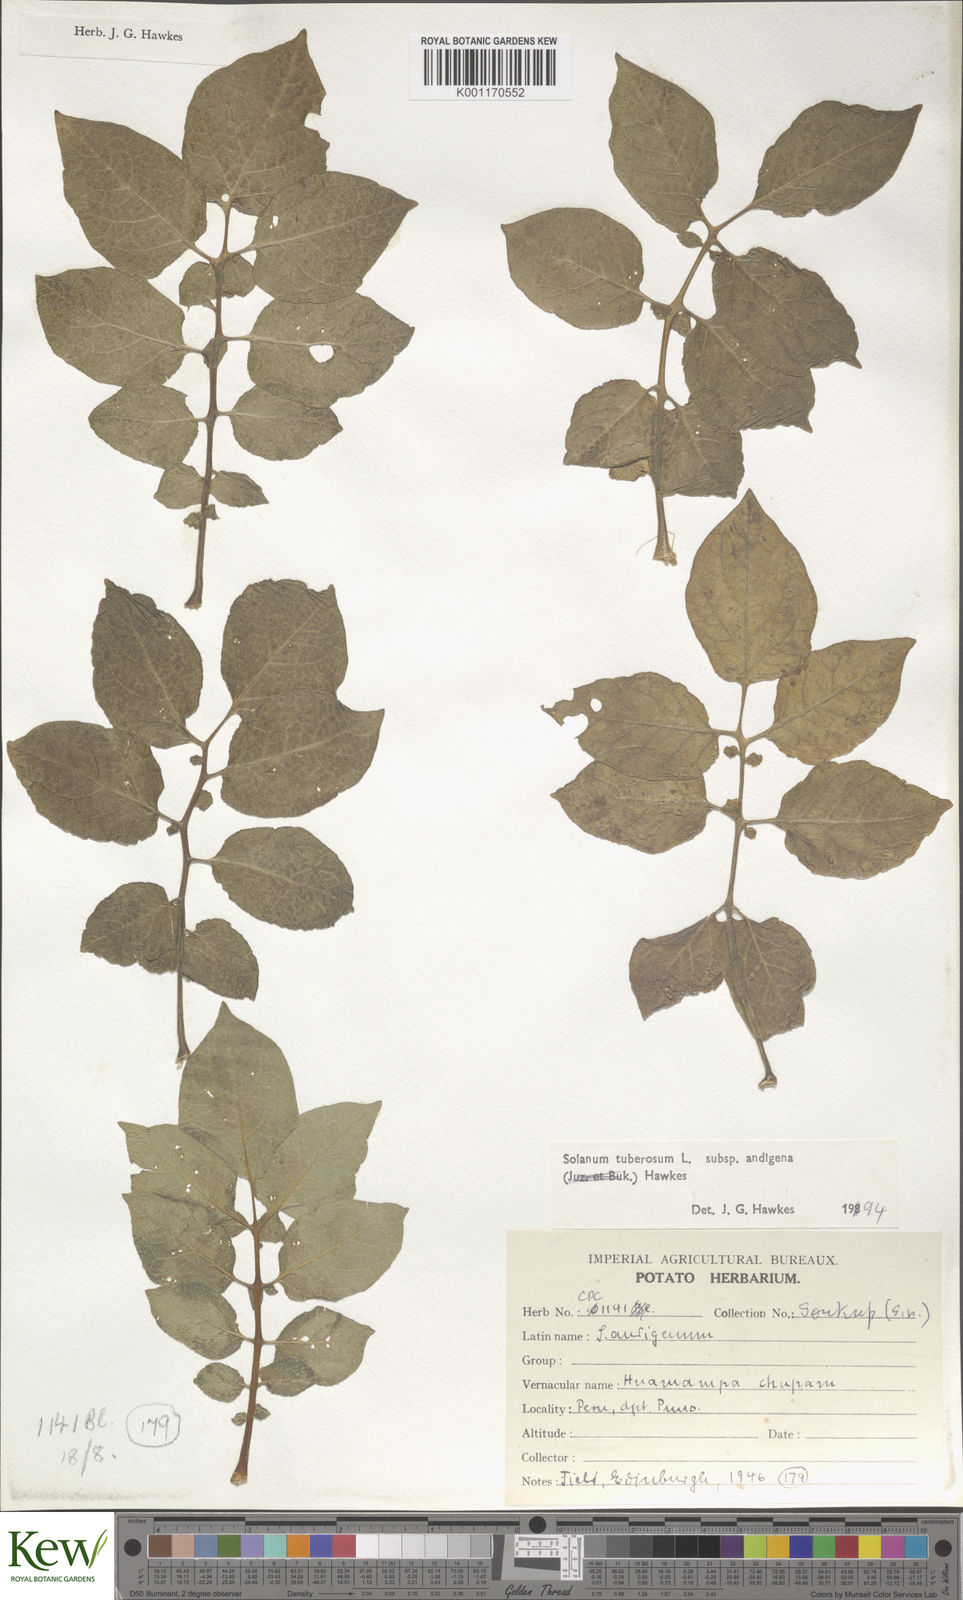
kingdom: Plantae
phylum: Tracheophyta
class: Magnoliopsida
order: Solanales
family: Solanaceae
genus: Solanum
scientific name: Solanum tuberosum
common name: Potato
